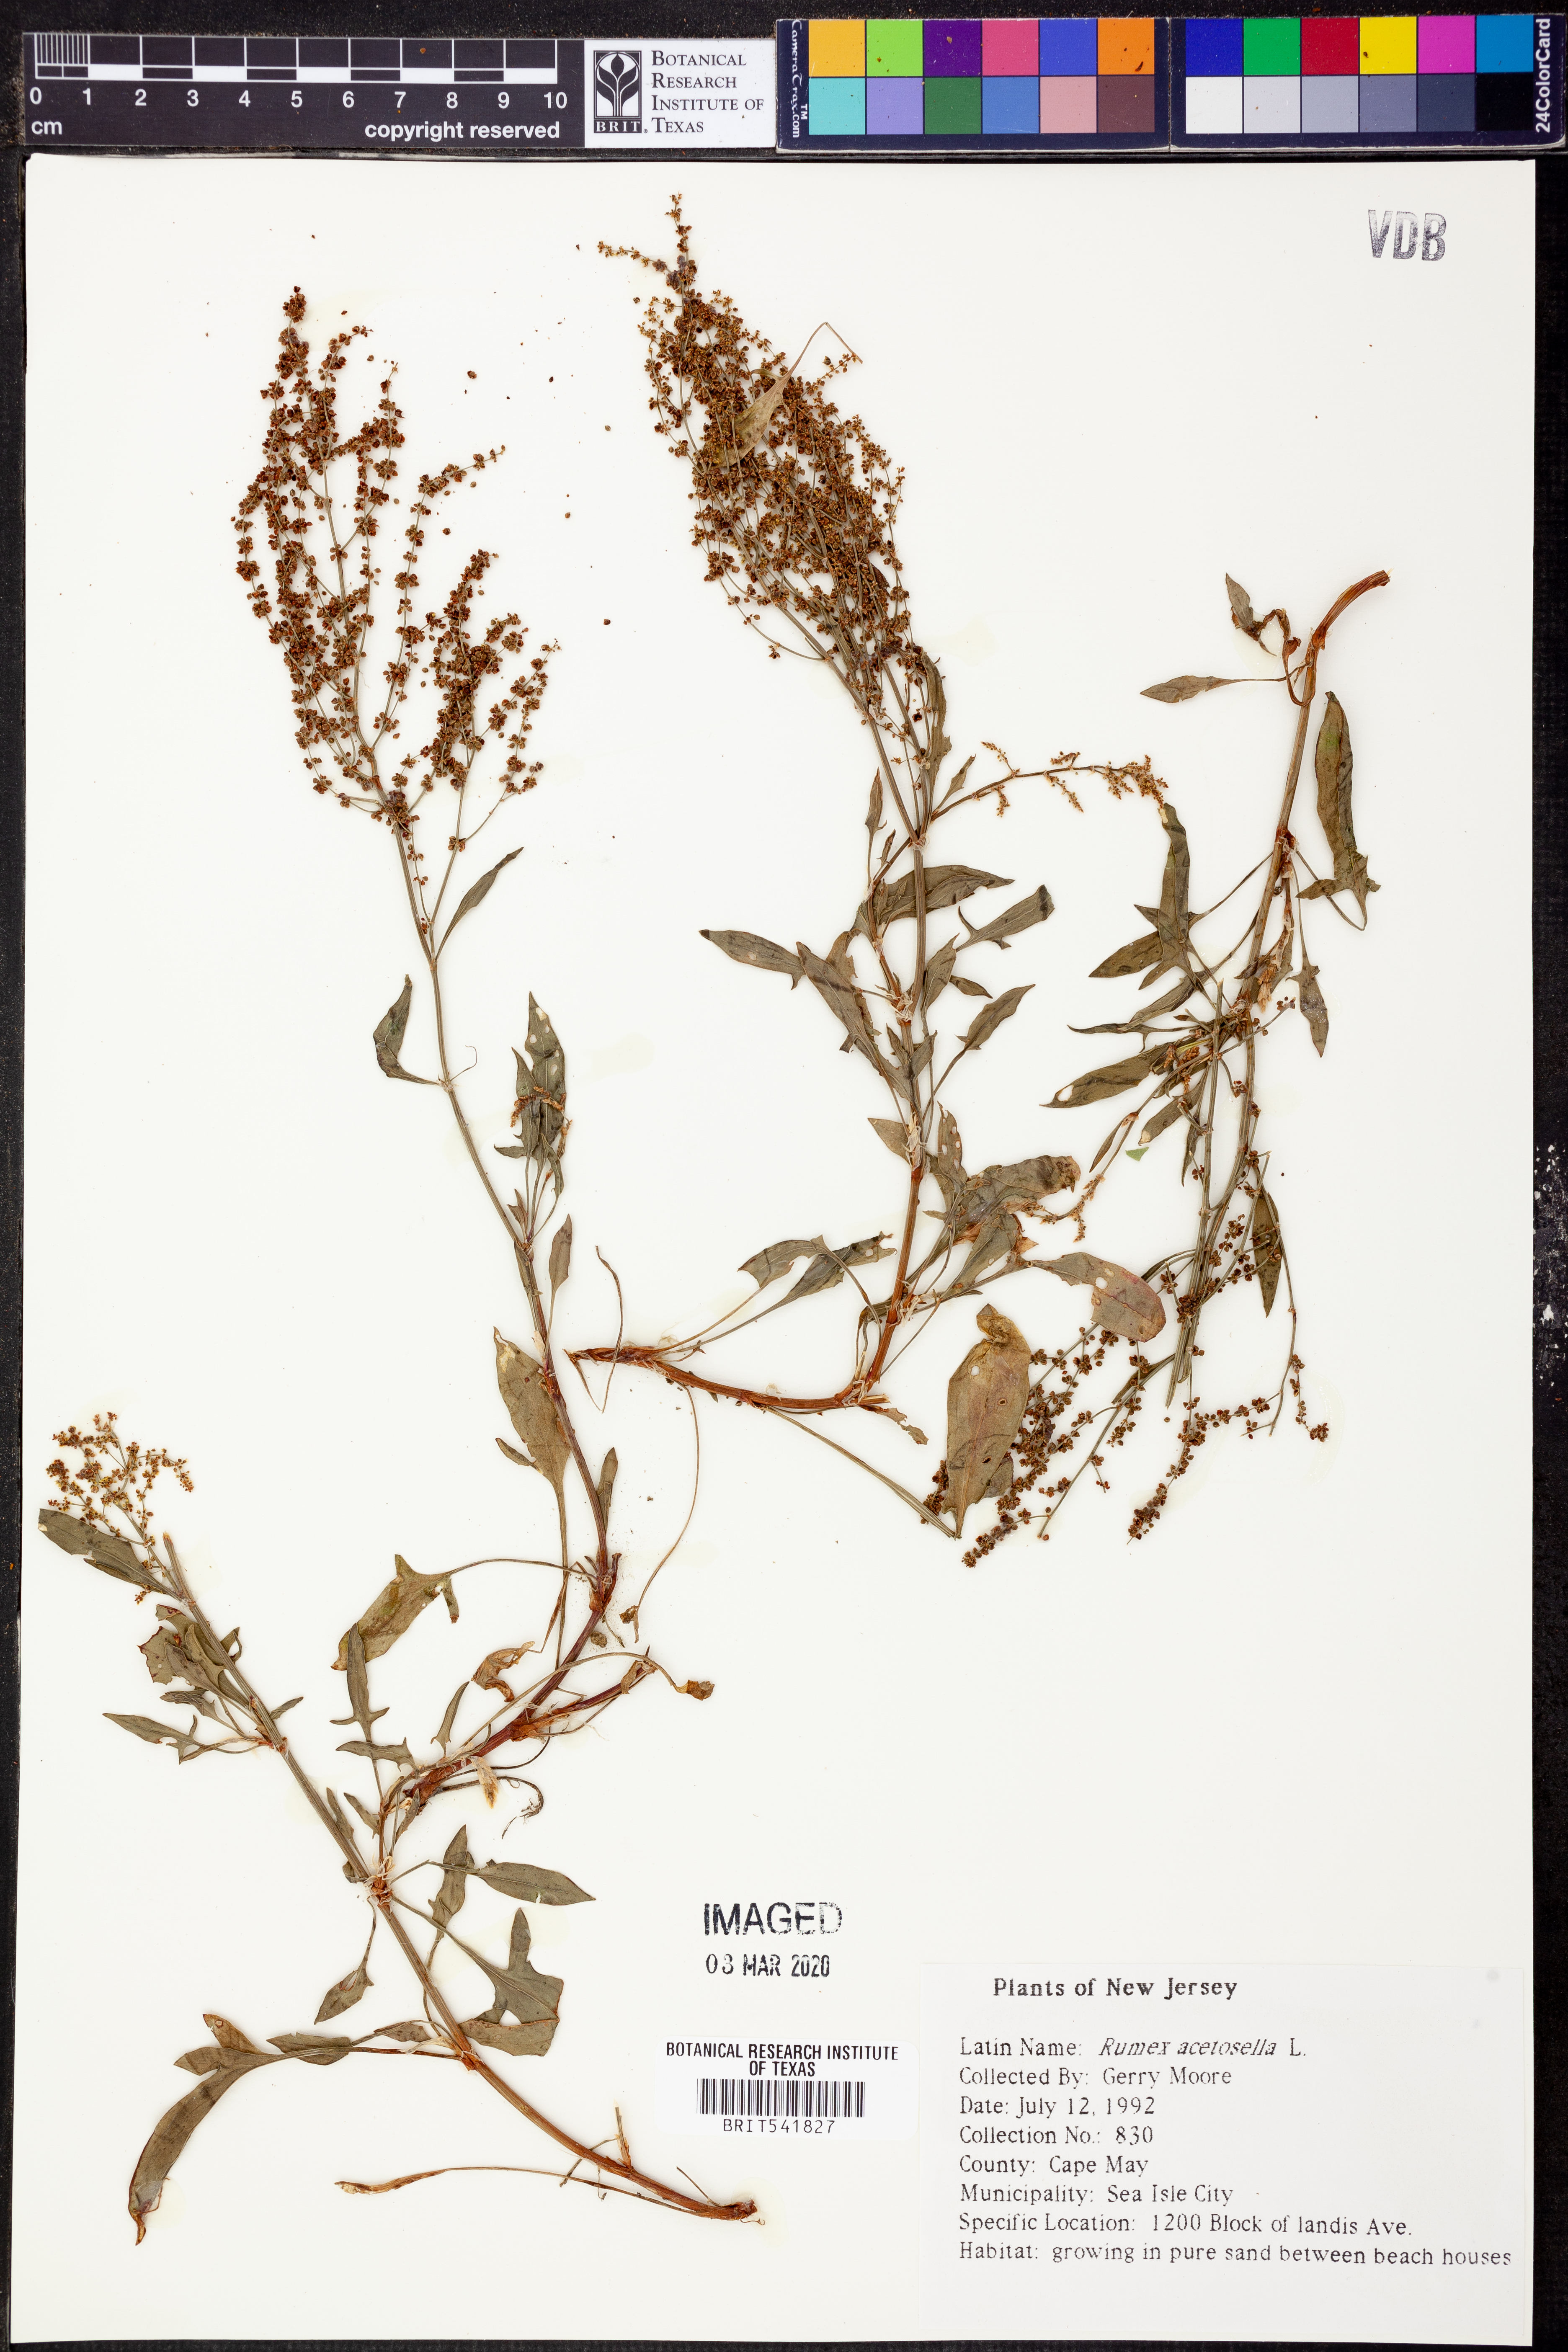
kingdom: Plantae
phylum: Tracheophyta
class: Magnoliopsida
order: Caryophyllales
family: Polygonaceae
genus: Rumex
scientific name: Rumex acetosella
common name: Common sheep sorrel
